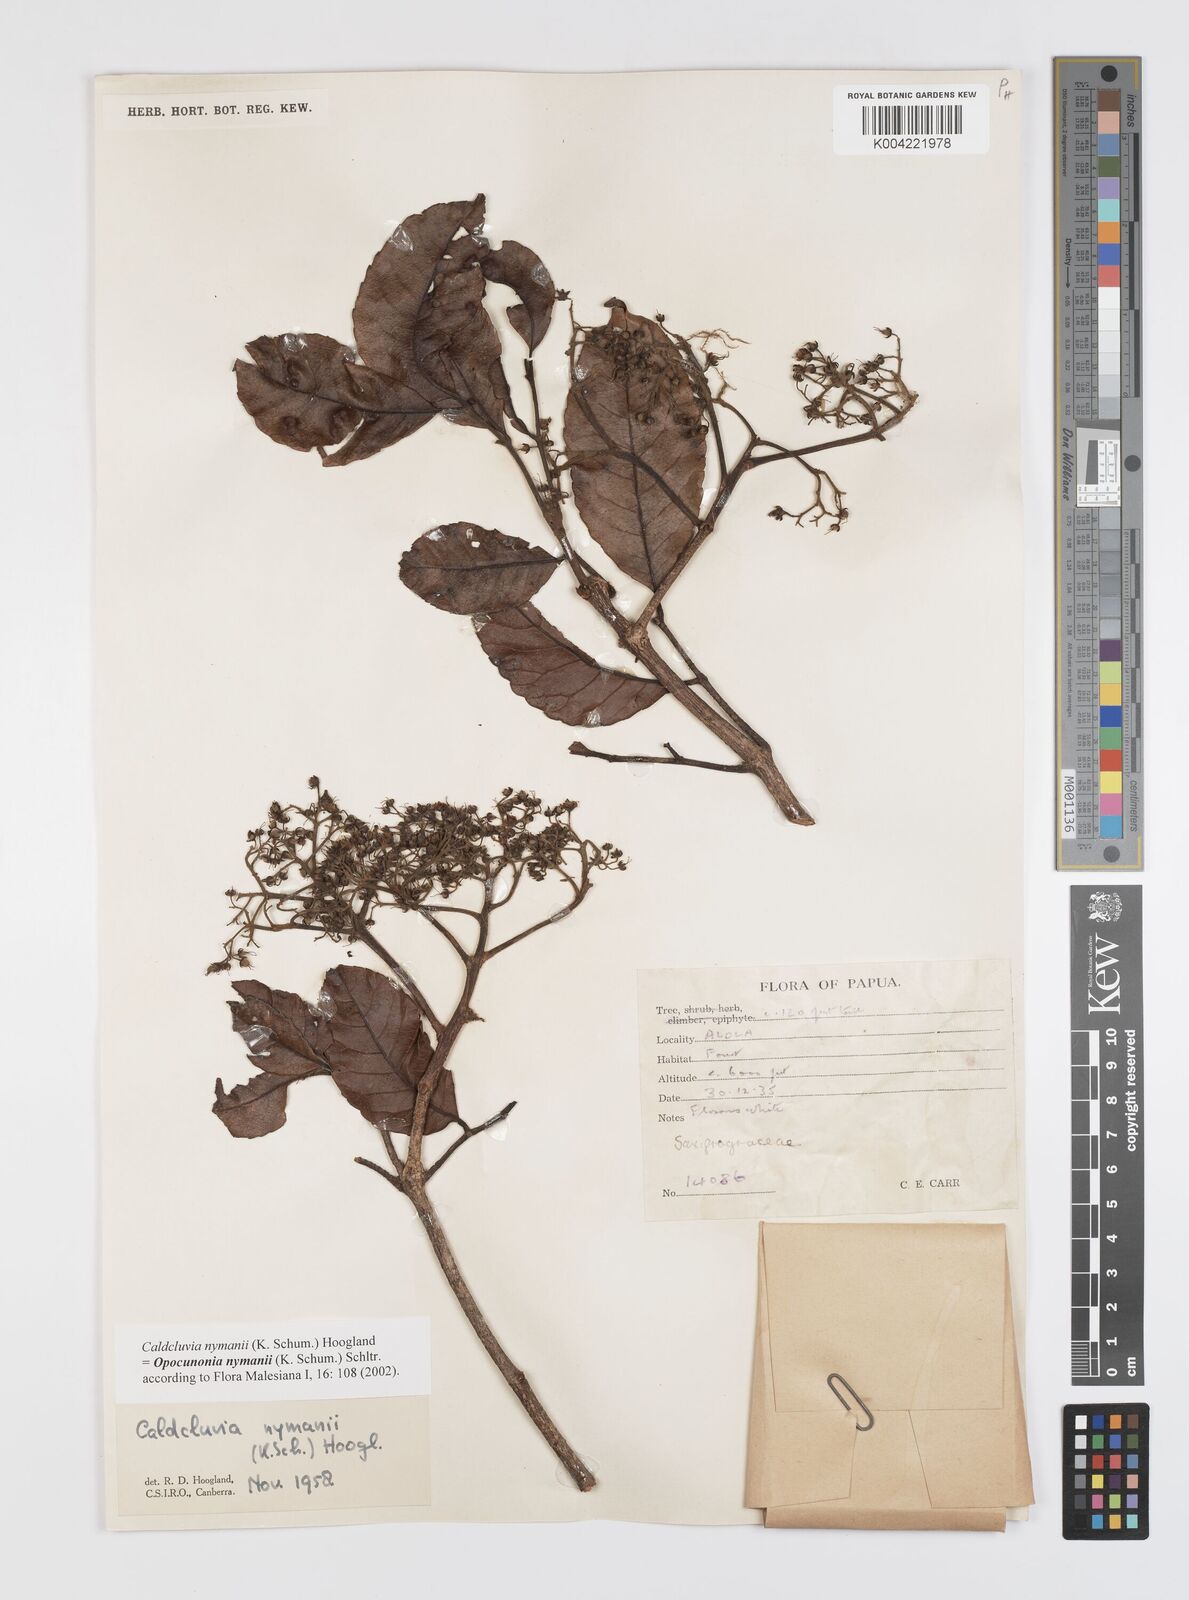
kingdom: Plantae
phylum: Tracheophyta
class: Magnoliopsida
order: Oxalidales
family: Cunoniaceae
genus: Opocunonia
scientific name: Opocunonia nymanii
